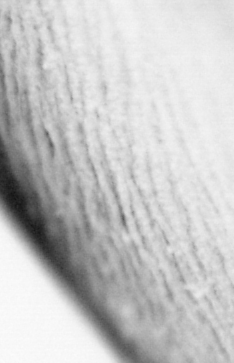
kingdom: Animalia
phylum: Chordata
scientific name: Chordata
